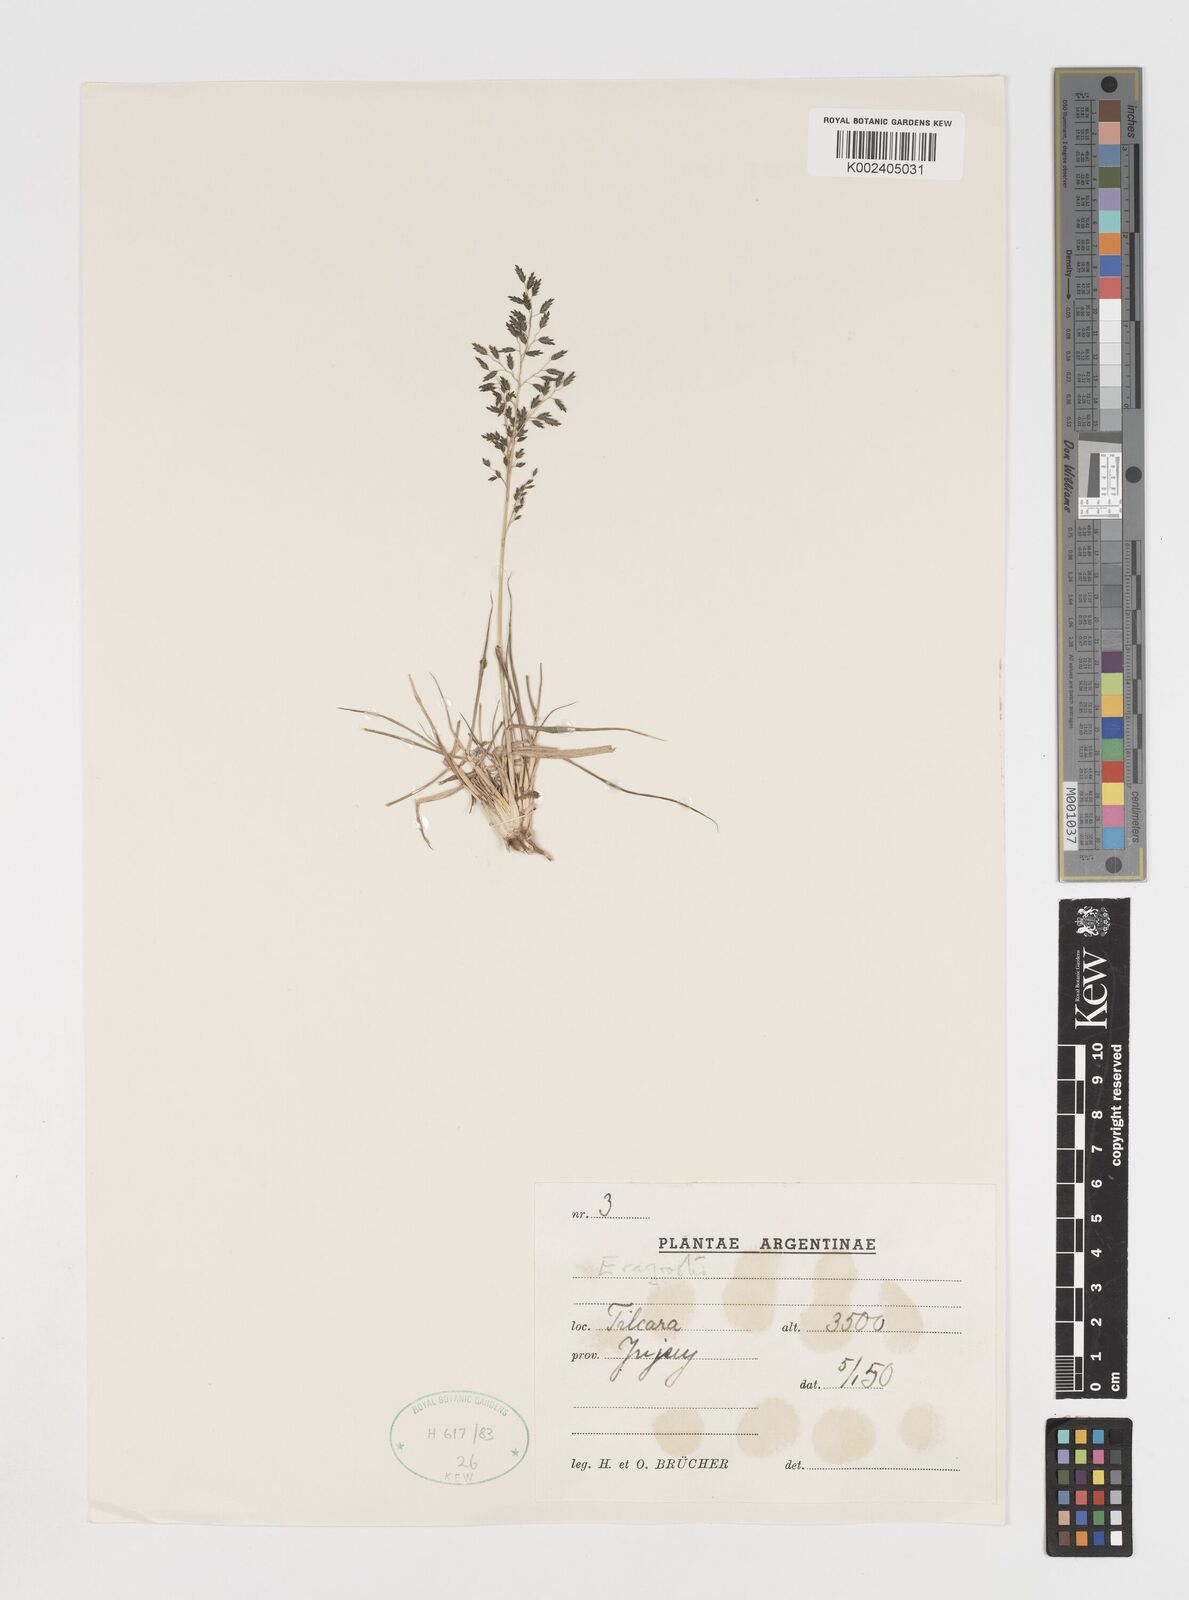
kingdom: Plantae
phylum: Tracheophyta
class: Liliopsida
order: Poales
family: Poaceae
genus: Eragrostis
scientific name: Eragrostis
